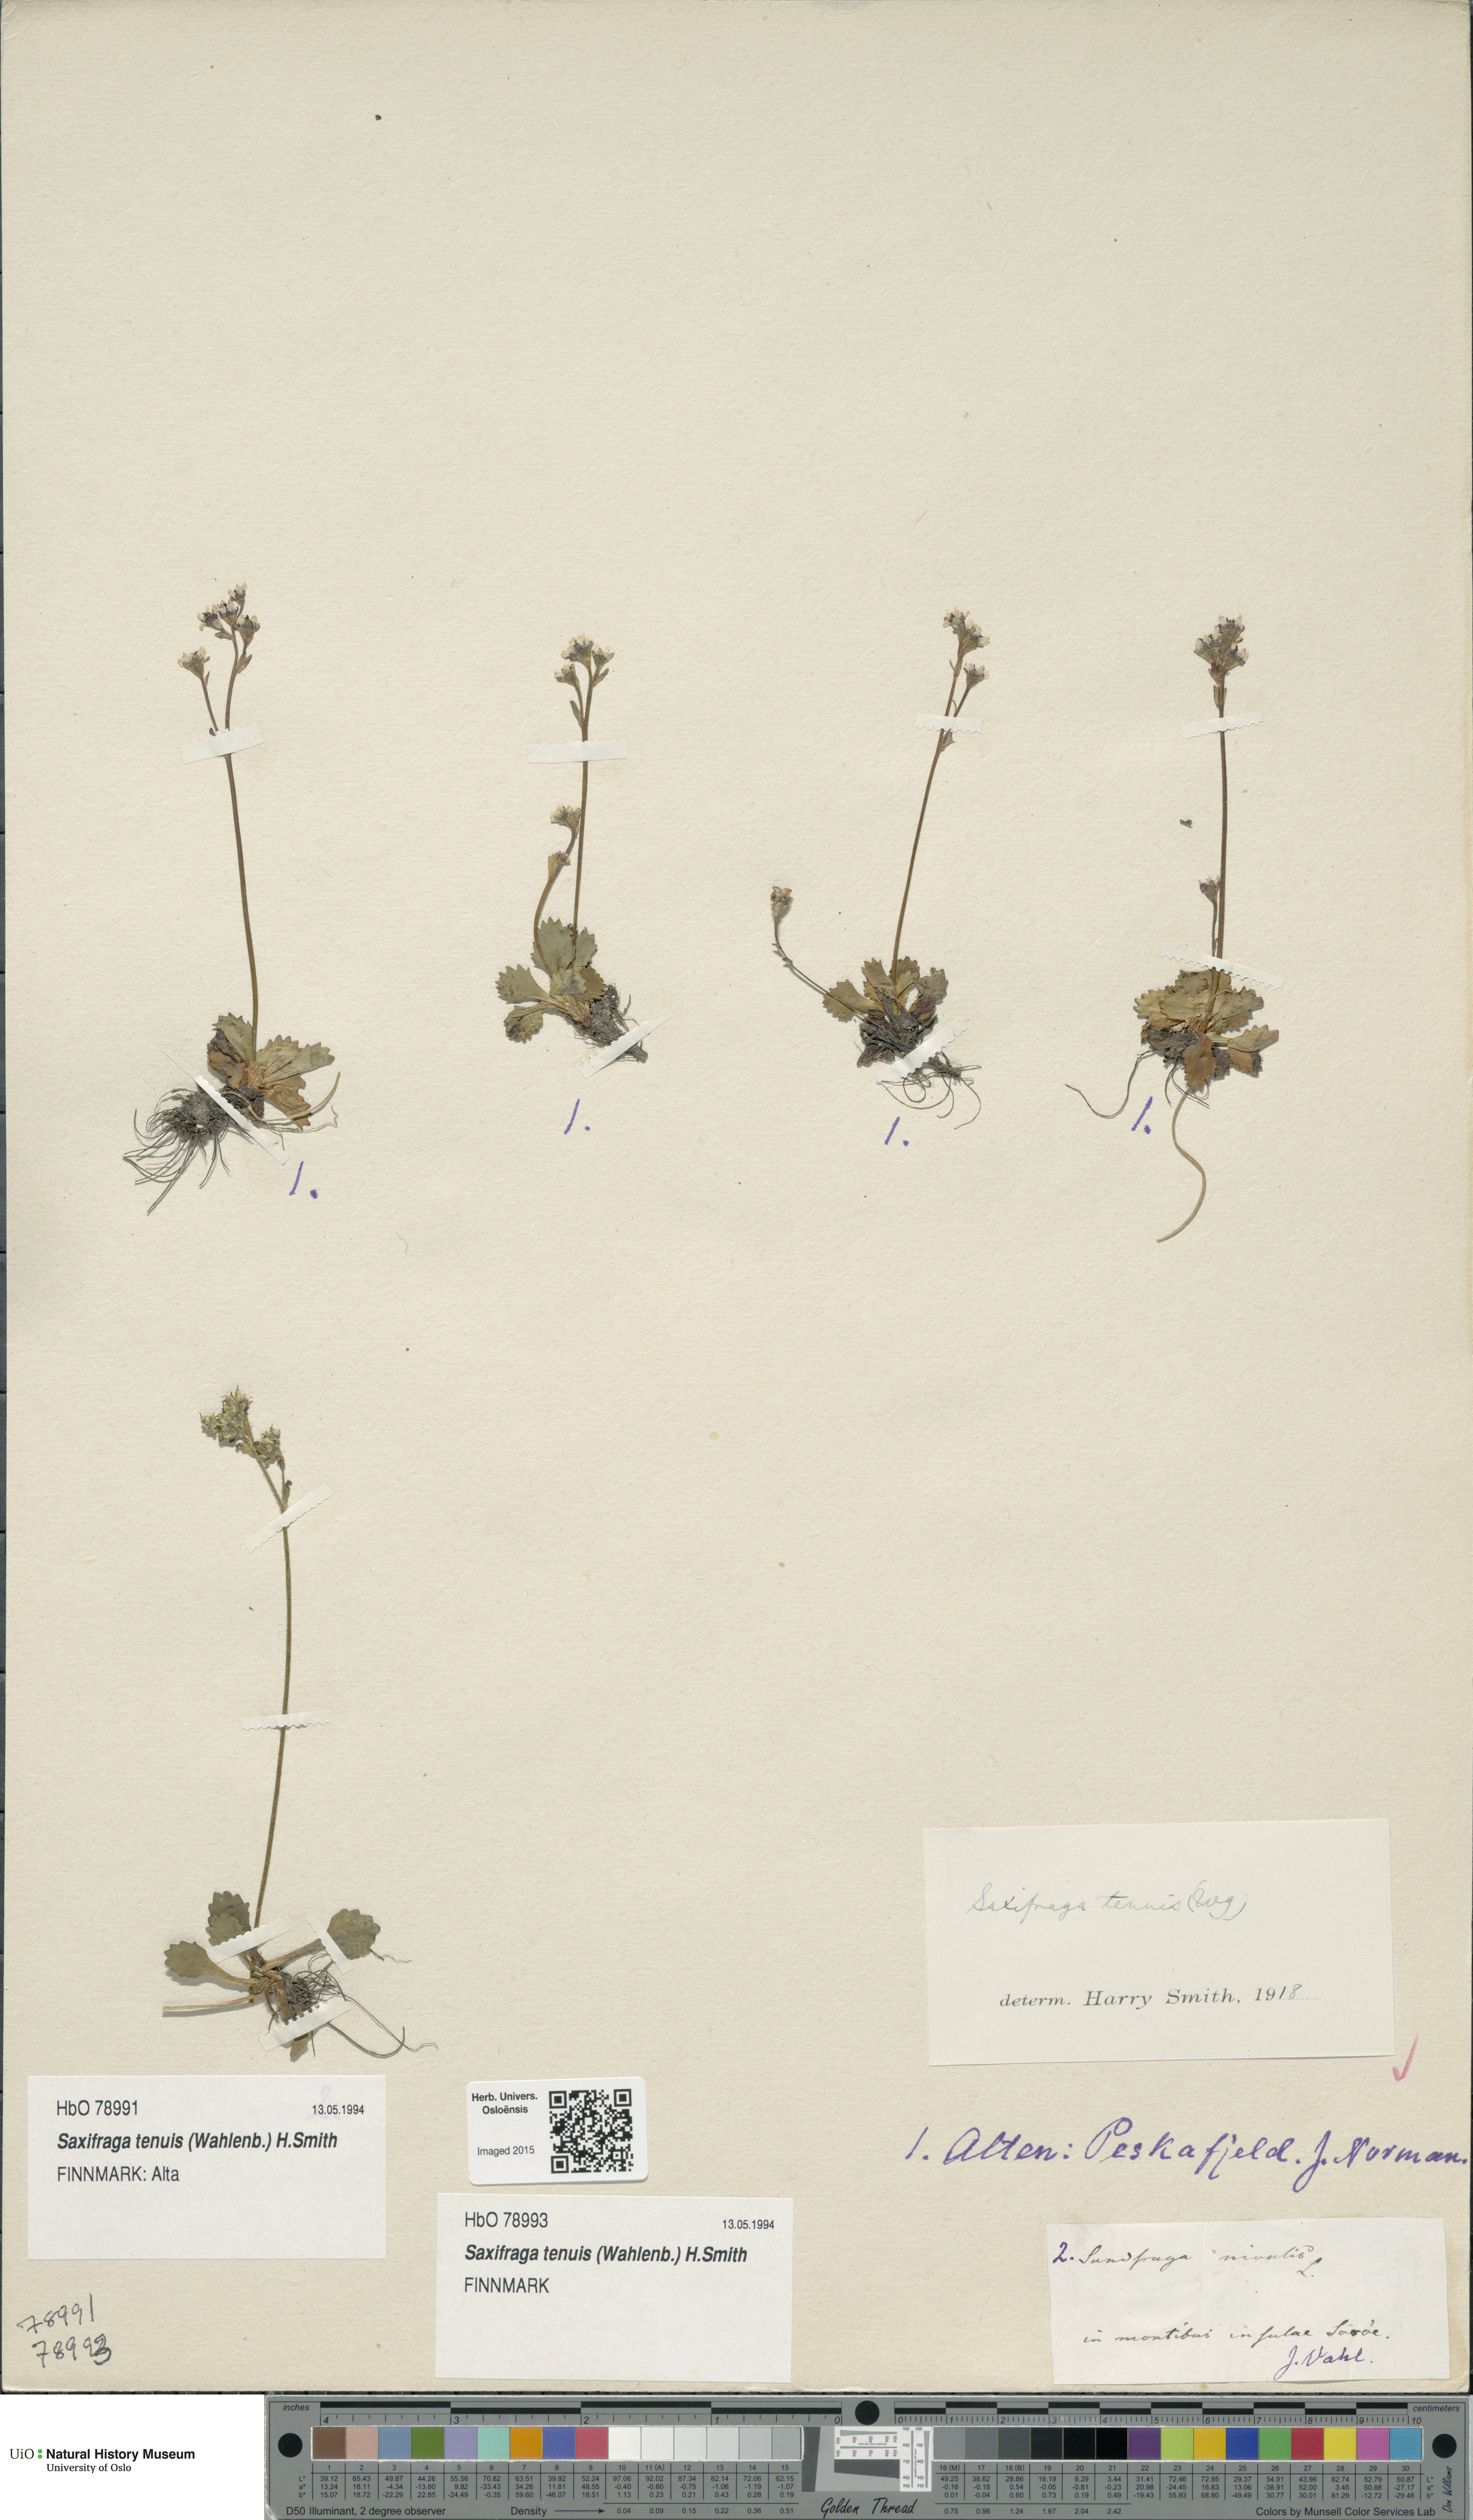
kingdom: Plantae
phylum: Tracheophyta
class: Magnoliopsida
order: Saxifragales
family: Saxifragaceae
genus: Micranthes
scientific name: Micranthes tenuis
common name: Ottertail pass saxifrage
